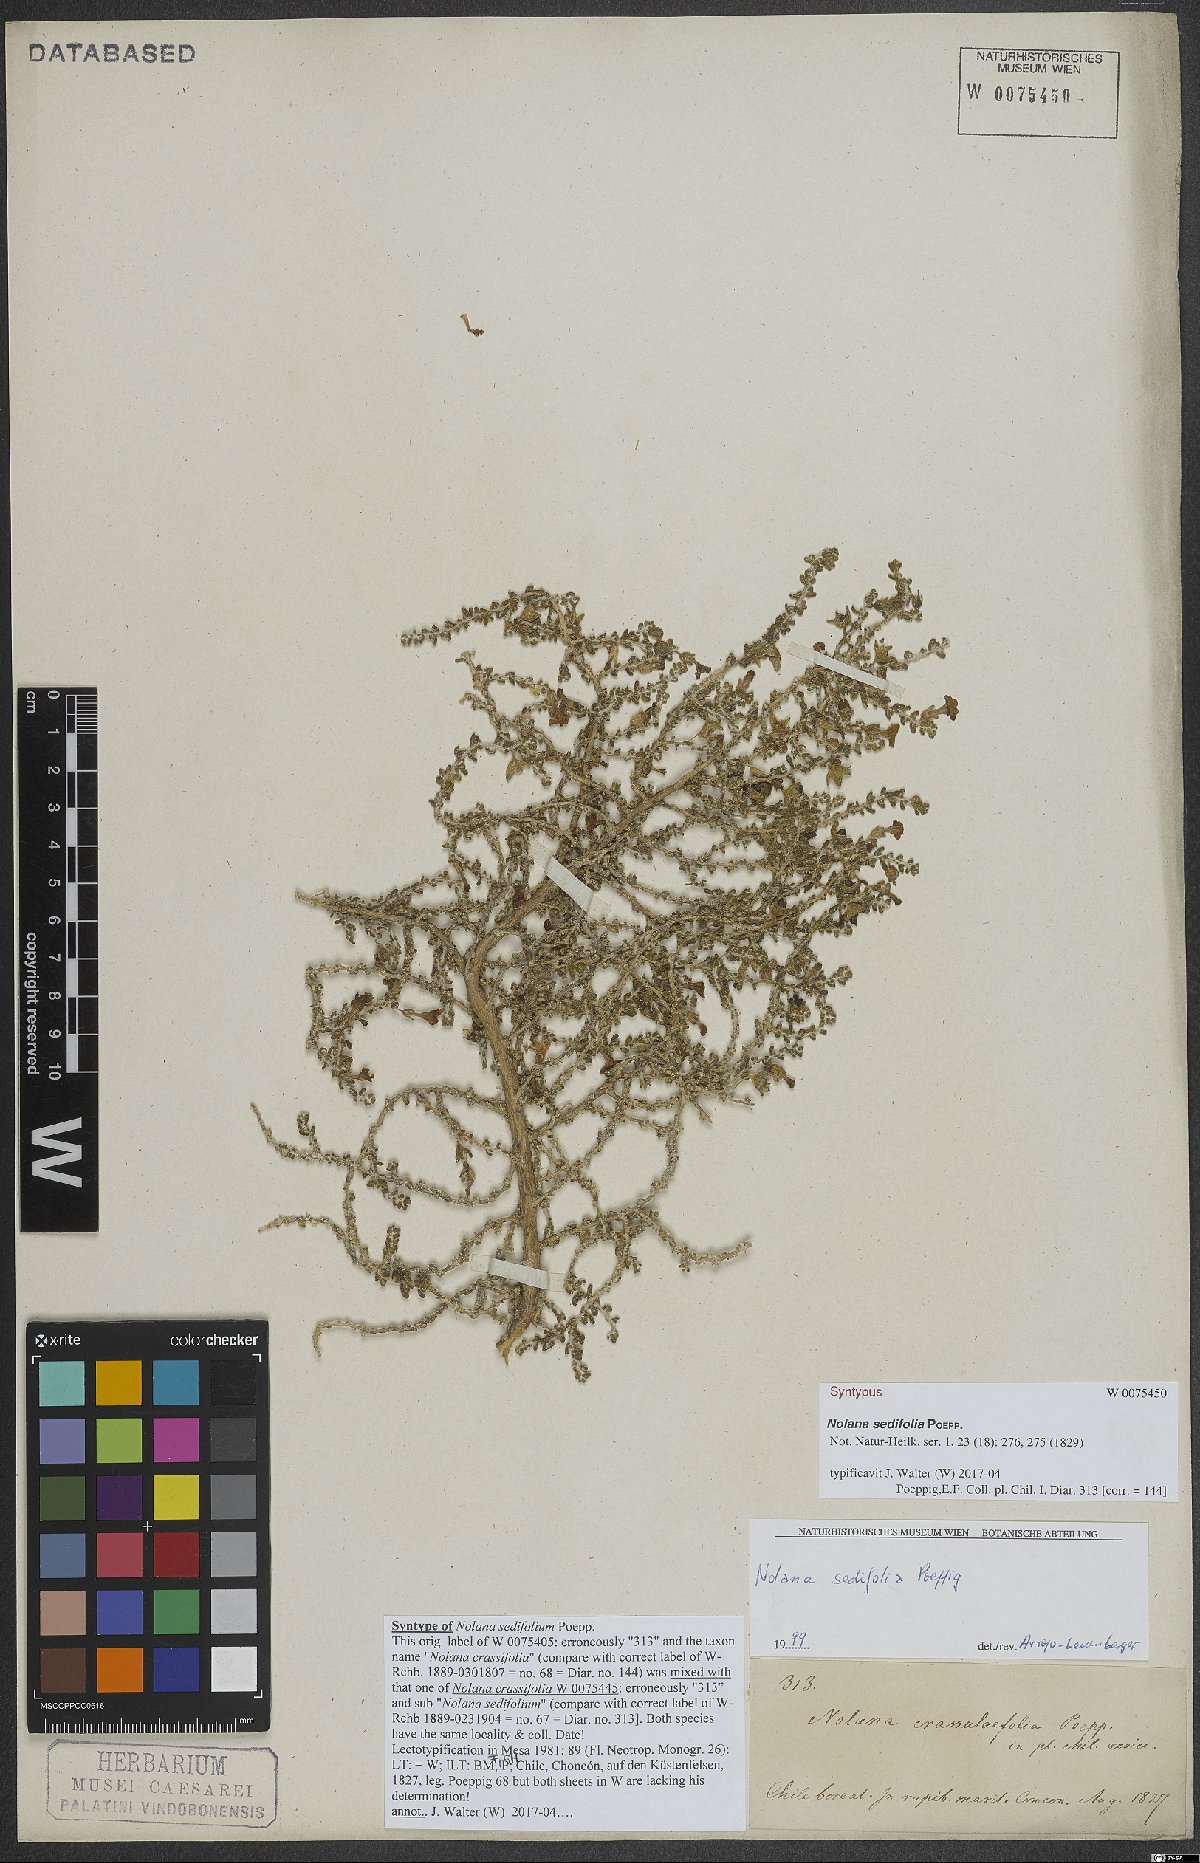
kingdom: Plantae
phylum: Tracheophyta
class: Magnoliopsida
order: Solanales
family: Solanaceae
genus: Nolana
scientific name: Nolana sedifolia
